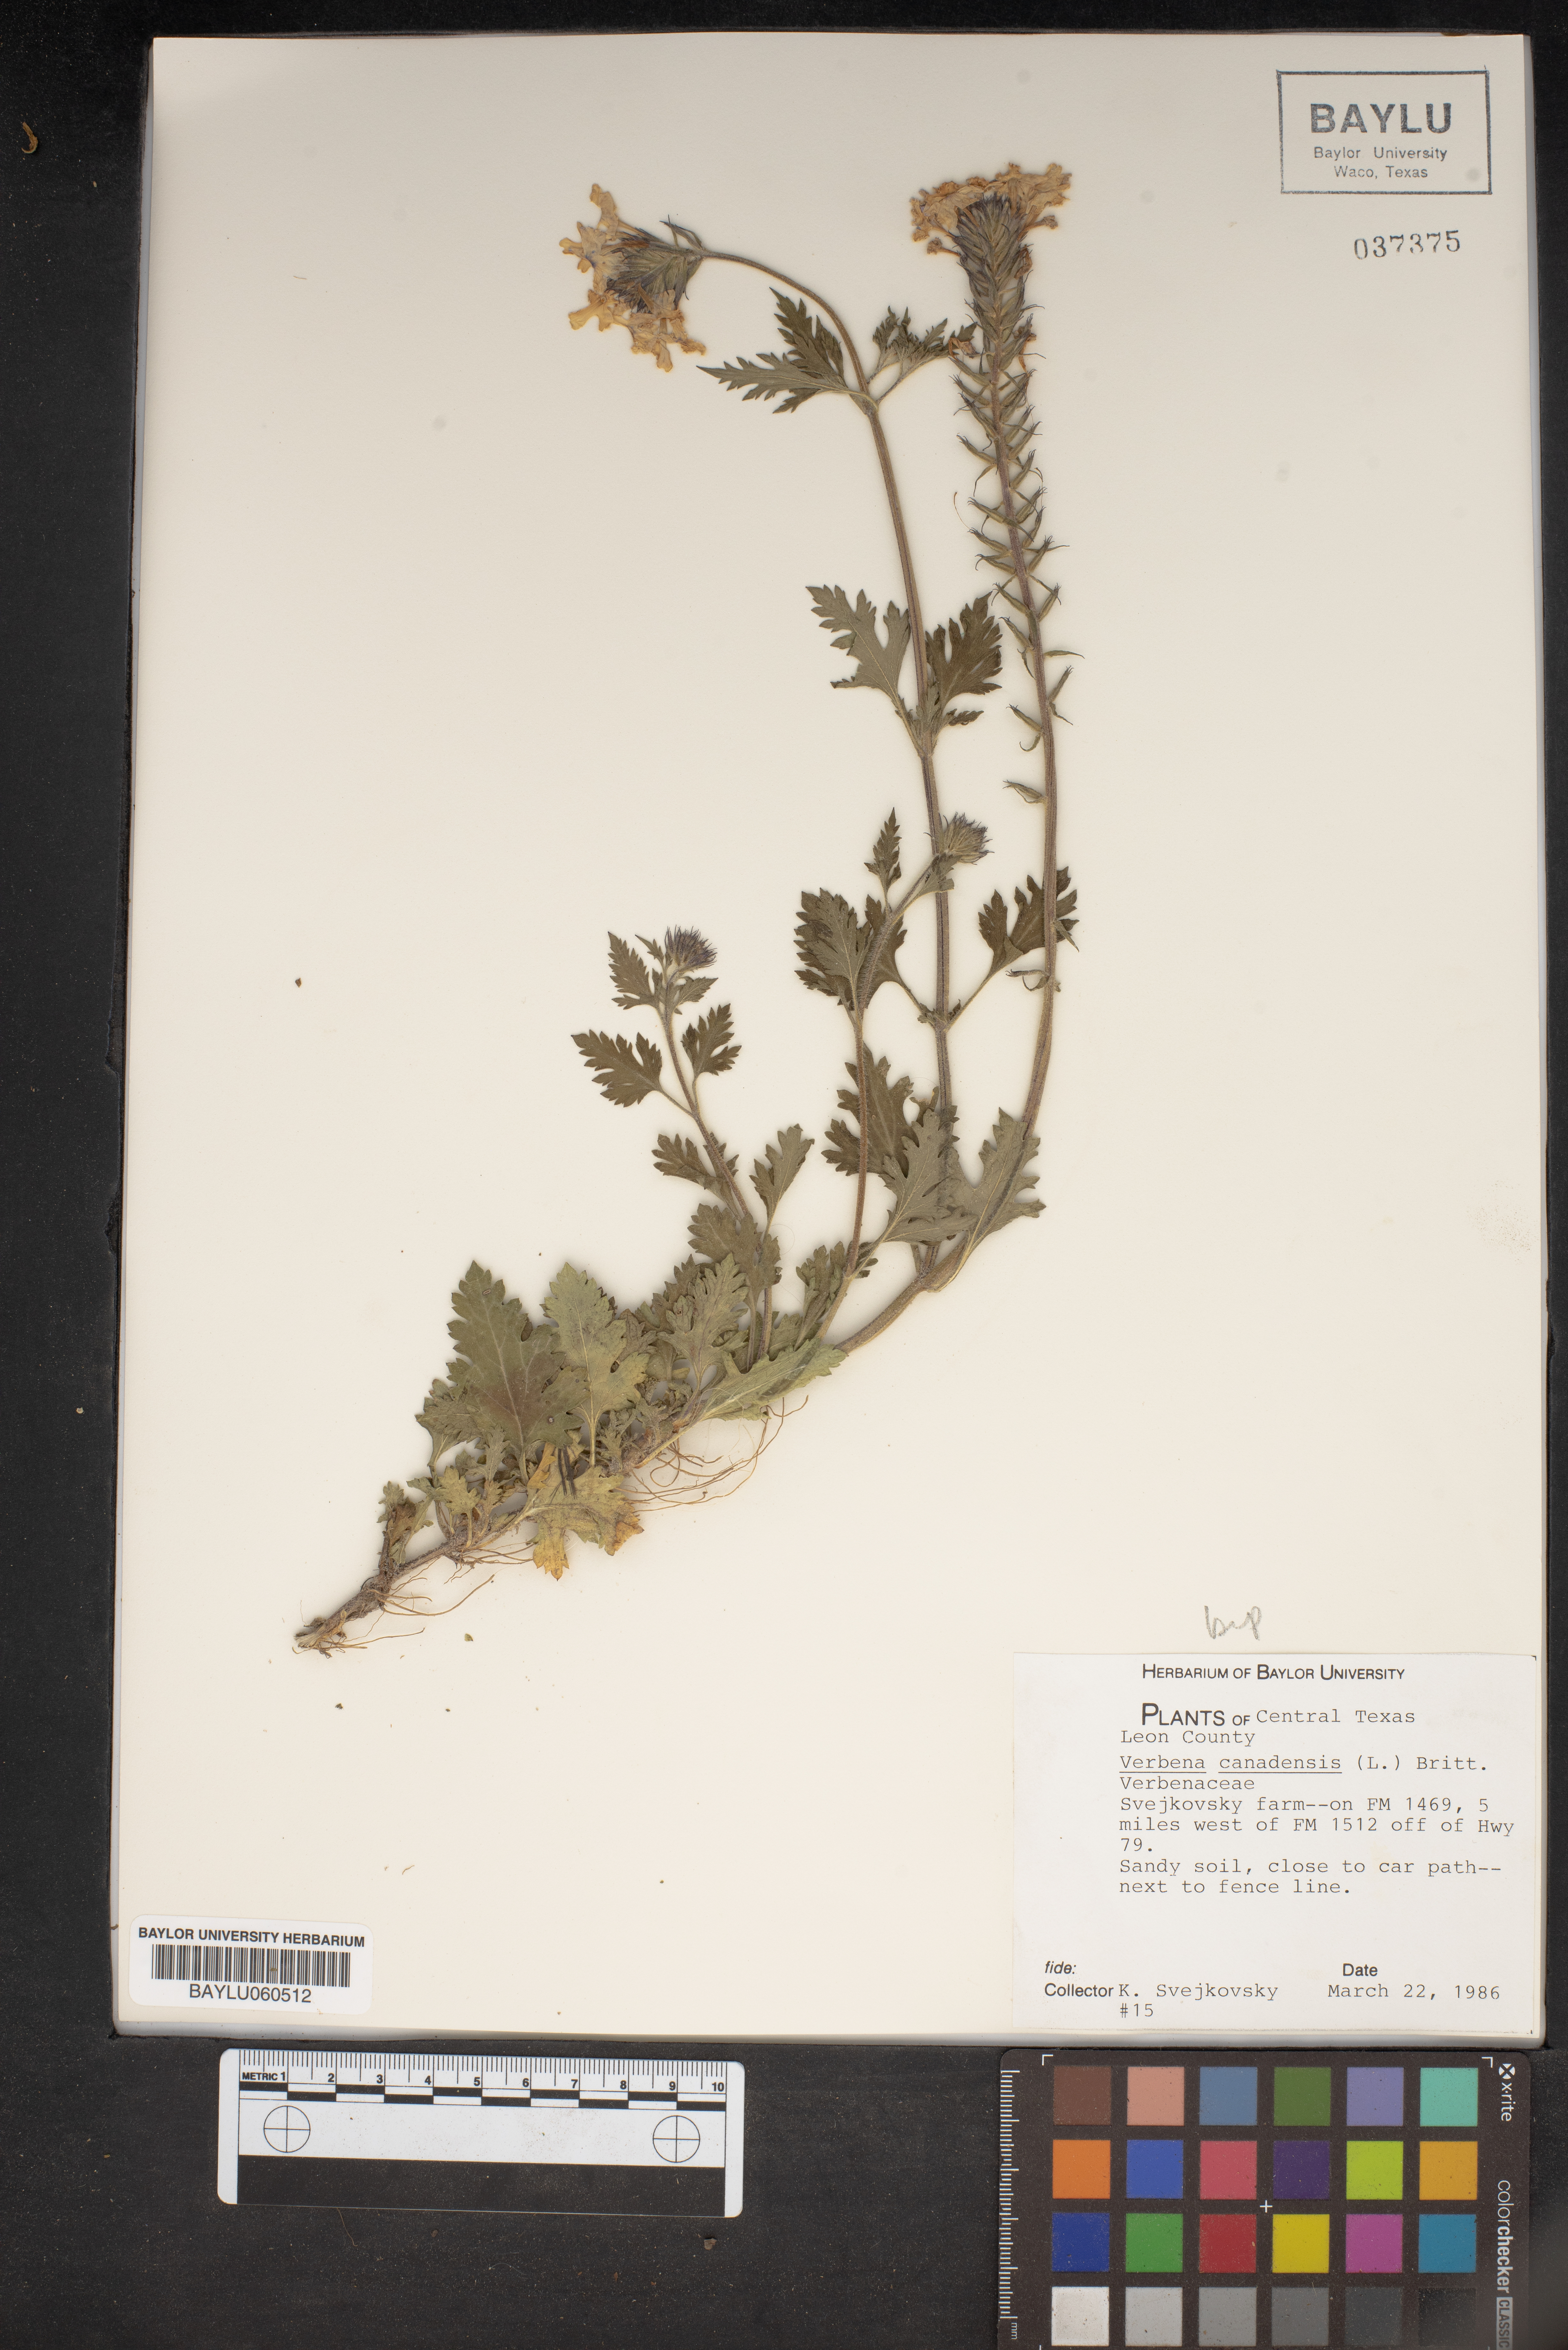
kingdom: Plantae
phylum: Tracheophyta
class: Magnoliopsida
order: Lamiales
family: Verbenaceae
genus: Verbena
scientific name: Verbena canadensis
